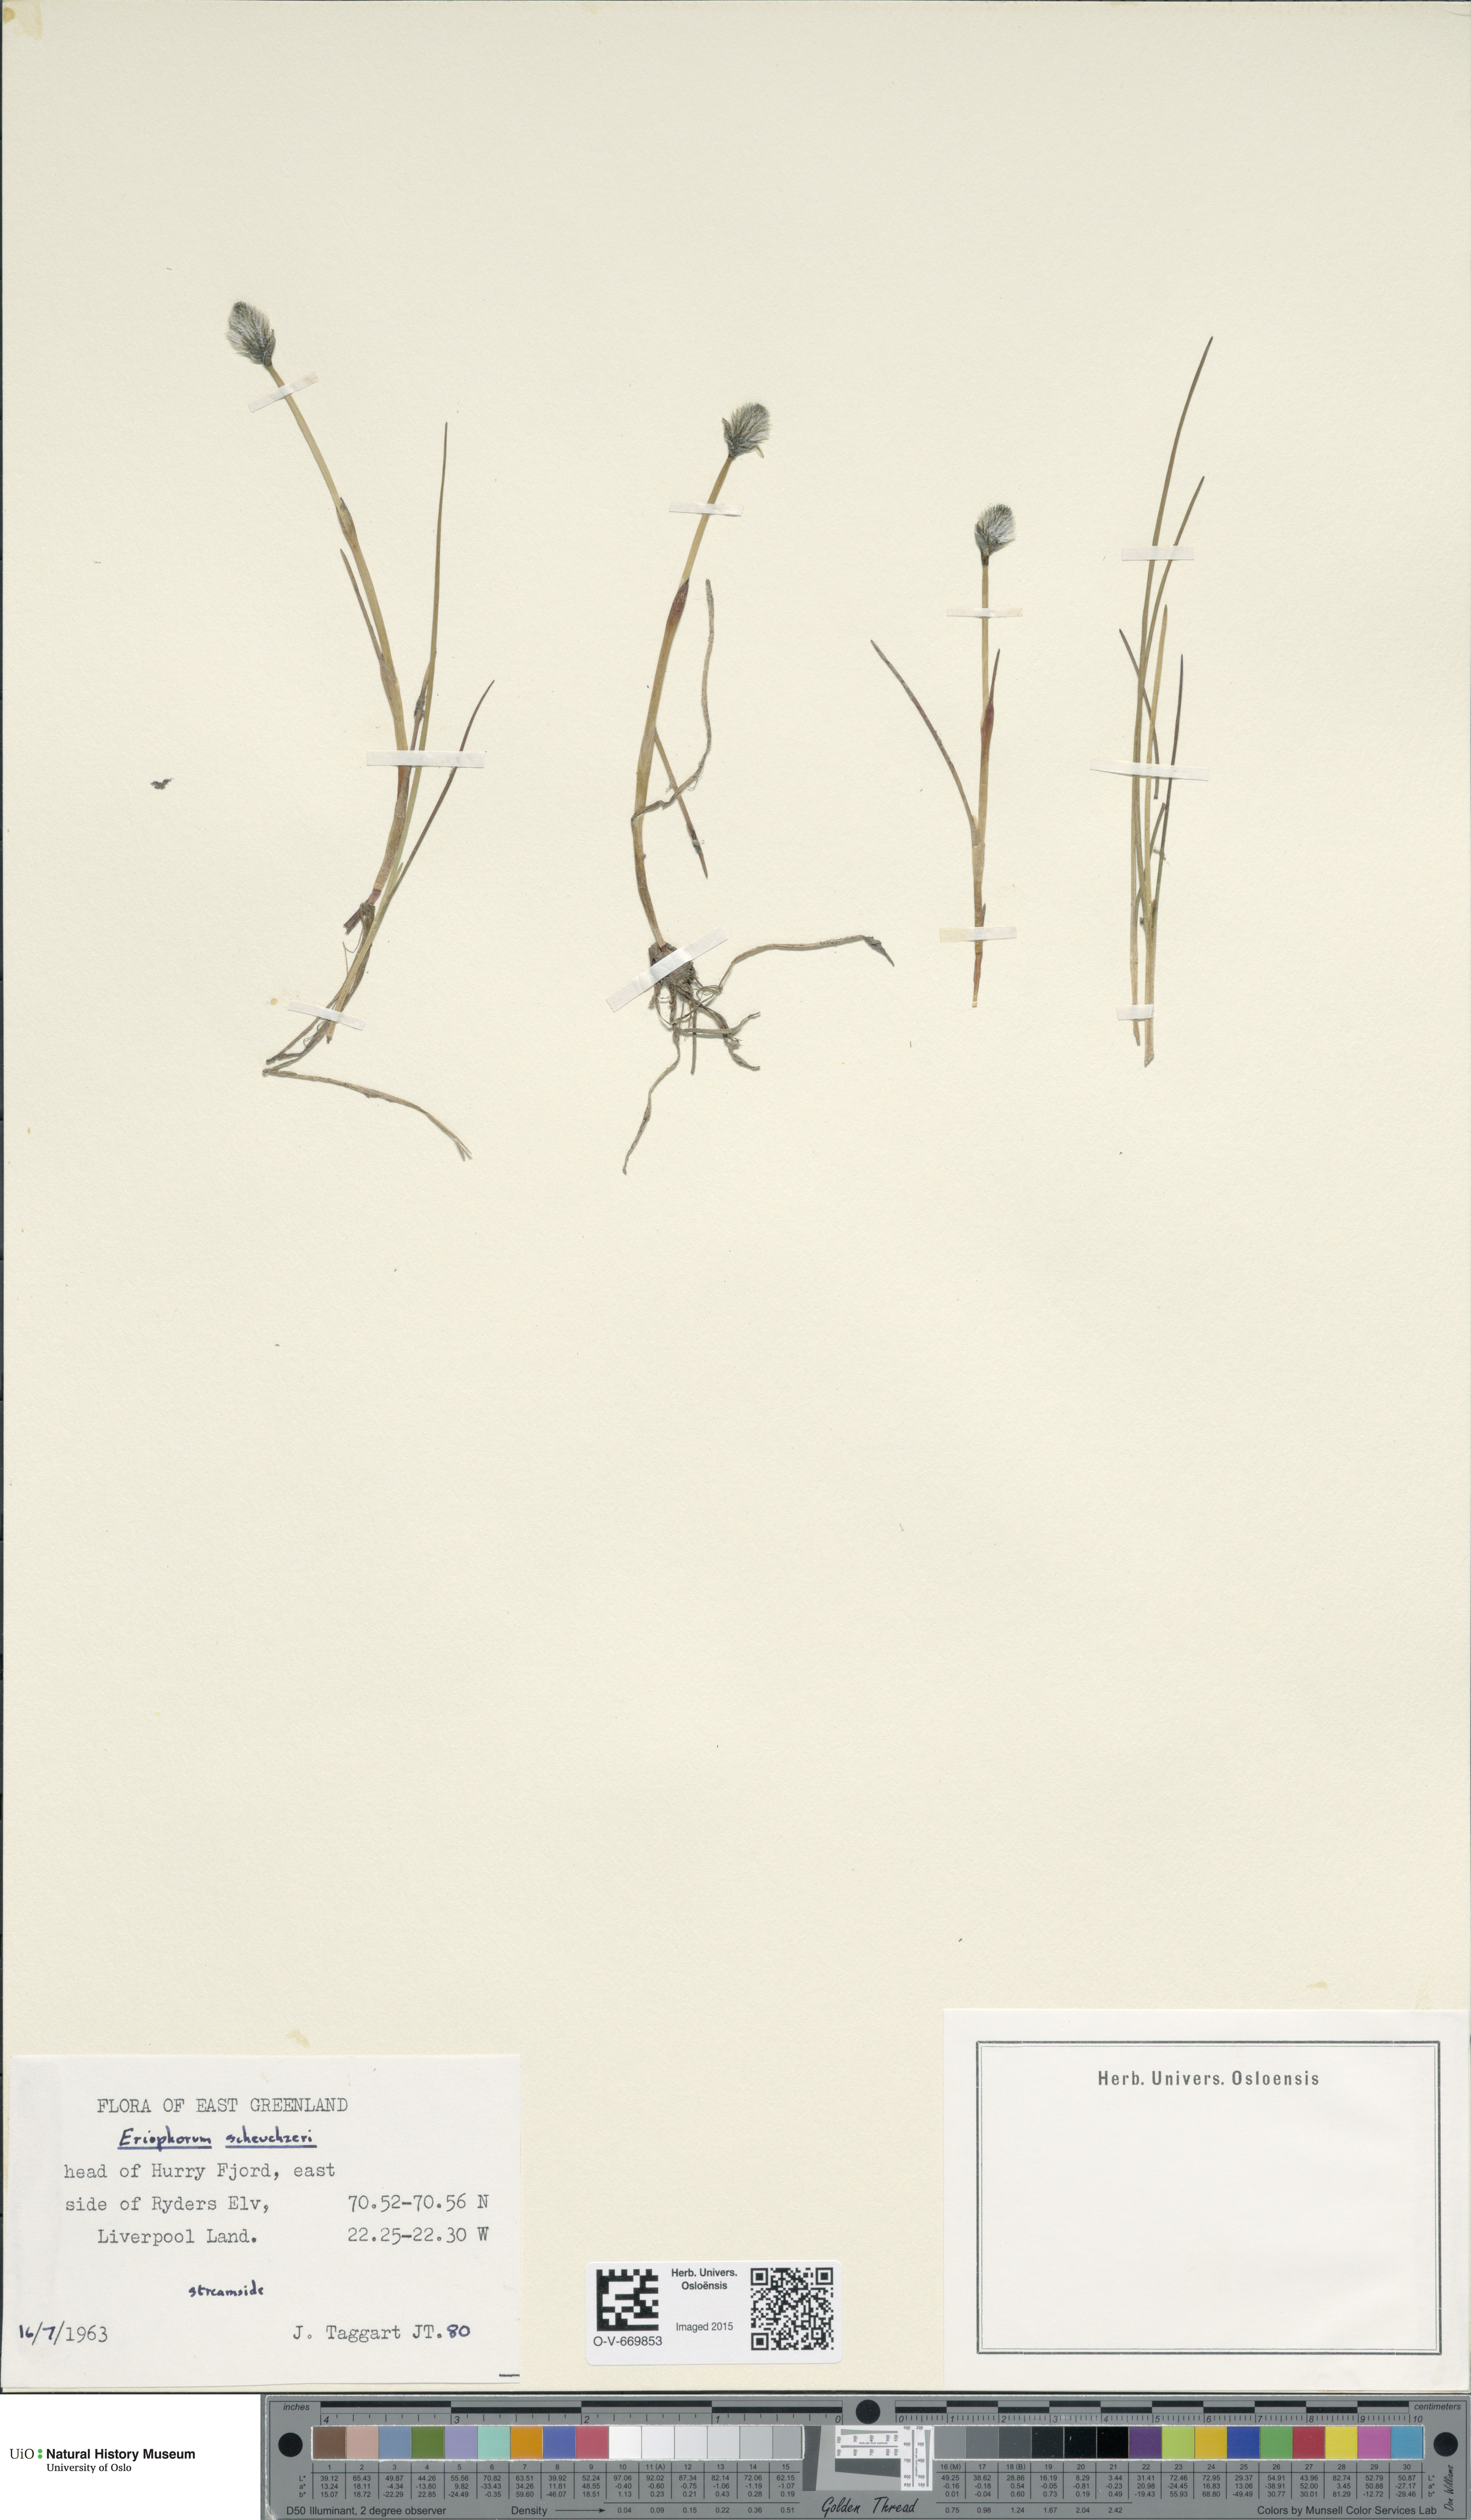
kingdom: Plantae
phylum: Tracheophyta
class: Liliopsida
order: Poales
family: Cyperaceae
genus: Eriophorum
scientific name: Eriophorum scheuchzeri
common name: Scheuchzer's cottongrass
